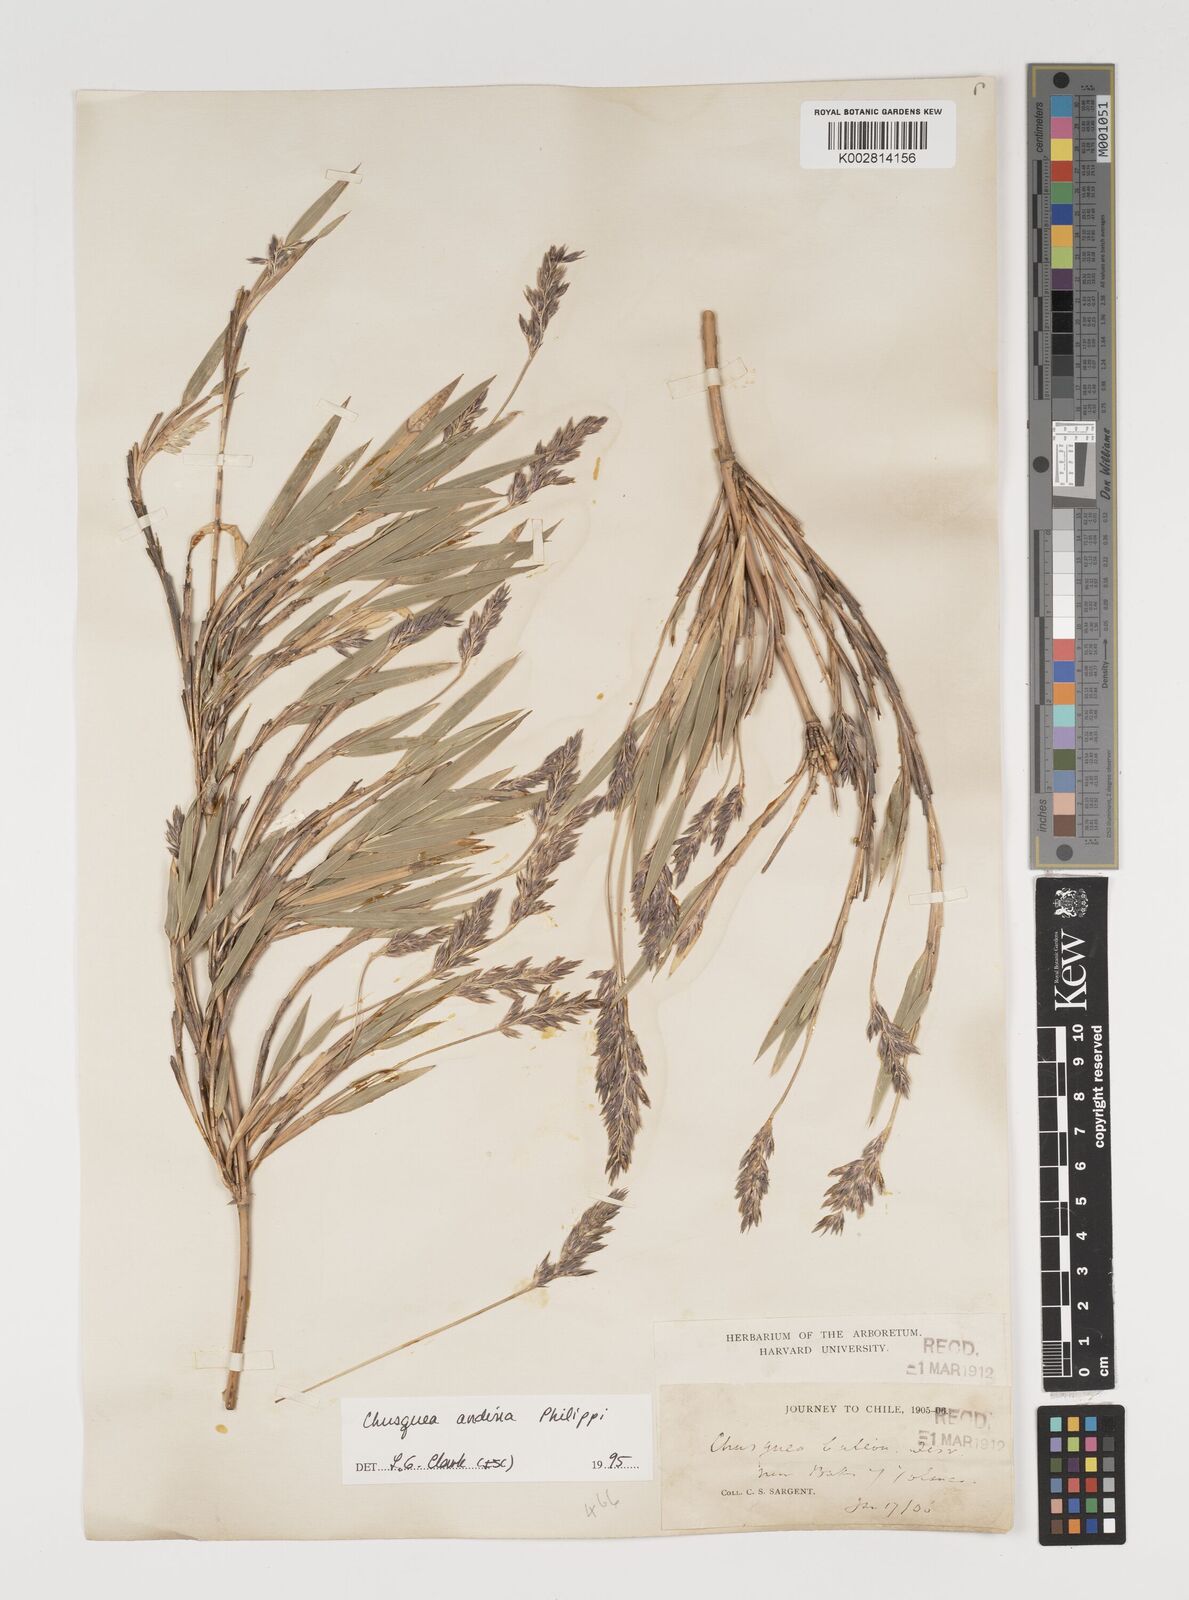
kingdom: Plantae
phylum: Tracheophyta
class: Liliopsida
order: Poales
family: Poaceae
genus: Chusquea
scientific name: Chusquea andina
